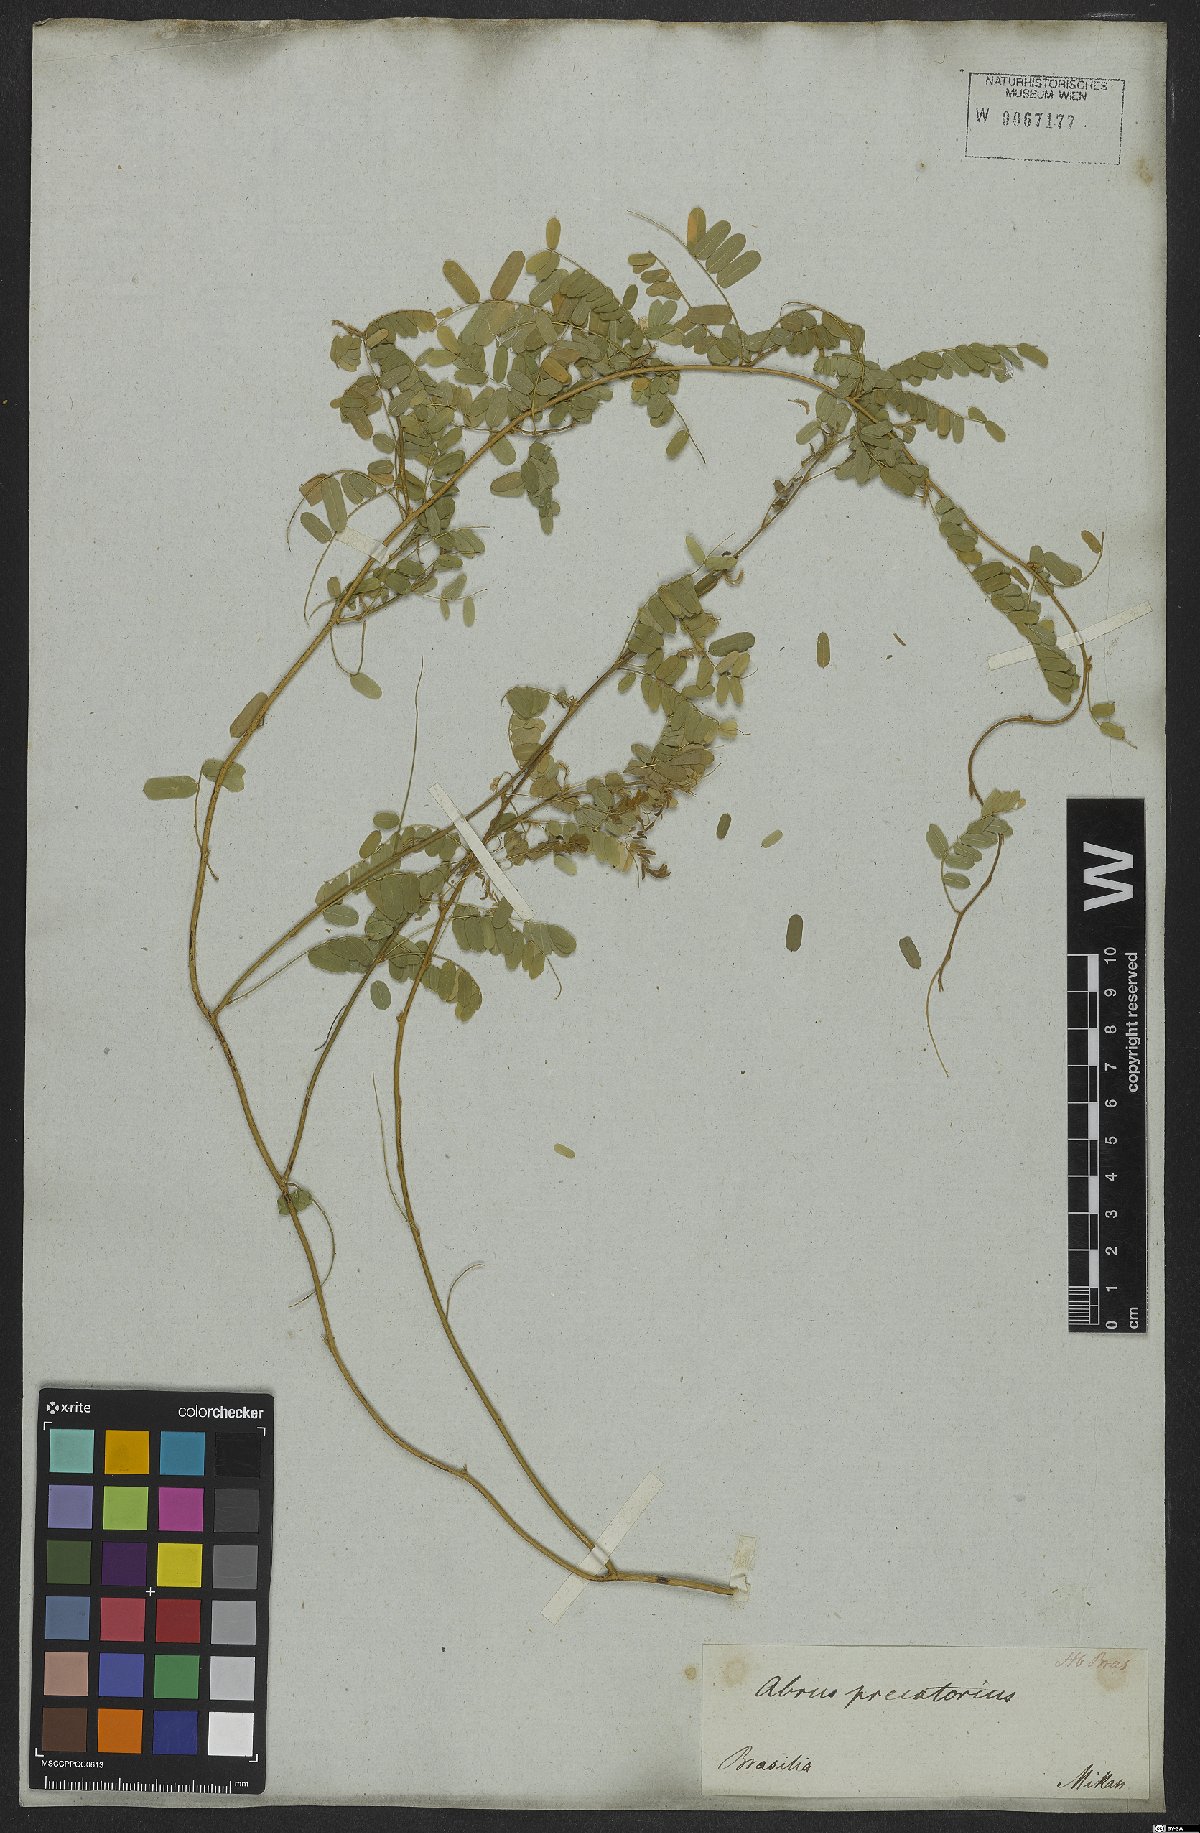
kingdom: Plantae
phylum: Tracheophyta
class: Magnoliopsida
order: Fabales
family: Fabaceae
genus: Abrus
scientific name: Abrus precatorius
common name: Rosarypea
